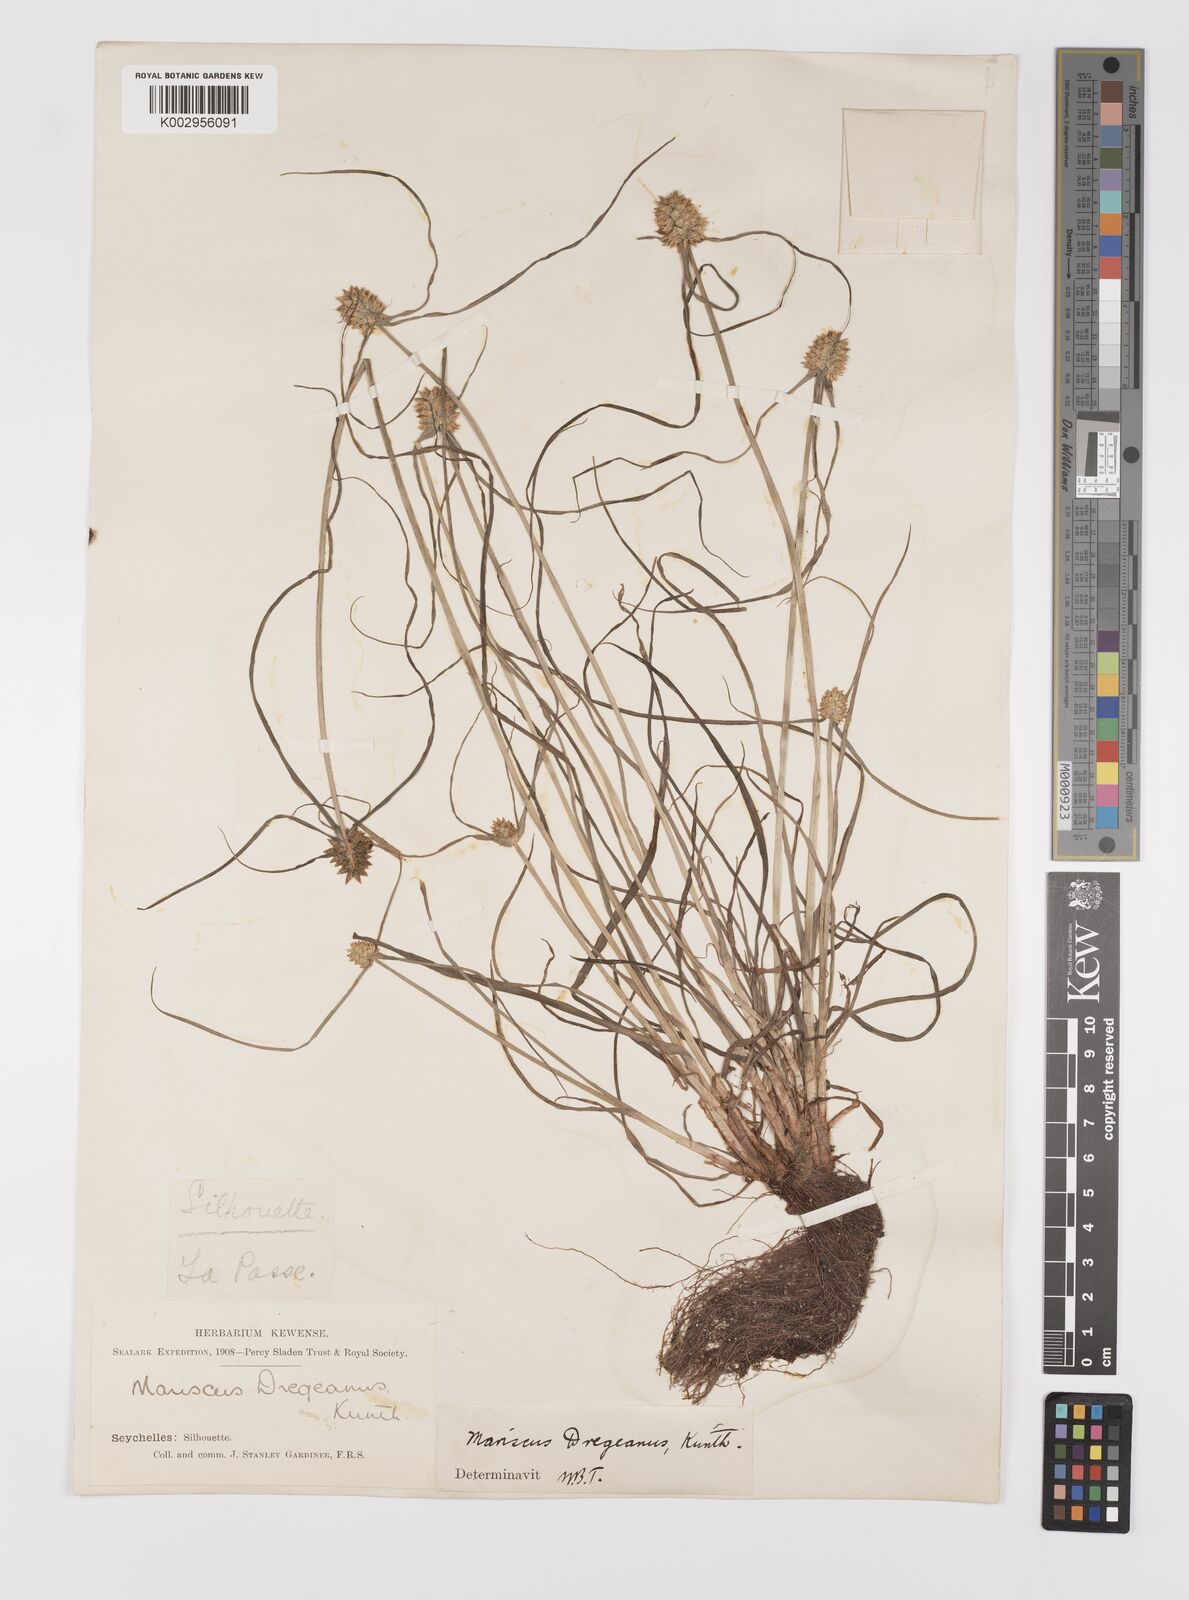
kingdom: Plantae
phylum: Tracheophyta
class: Liliopsida
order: Poales
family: Cyperaceae
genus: Cyperus
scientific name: Cyperus dubius
